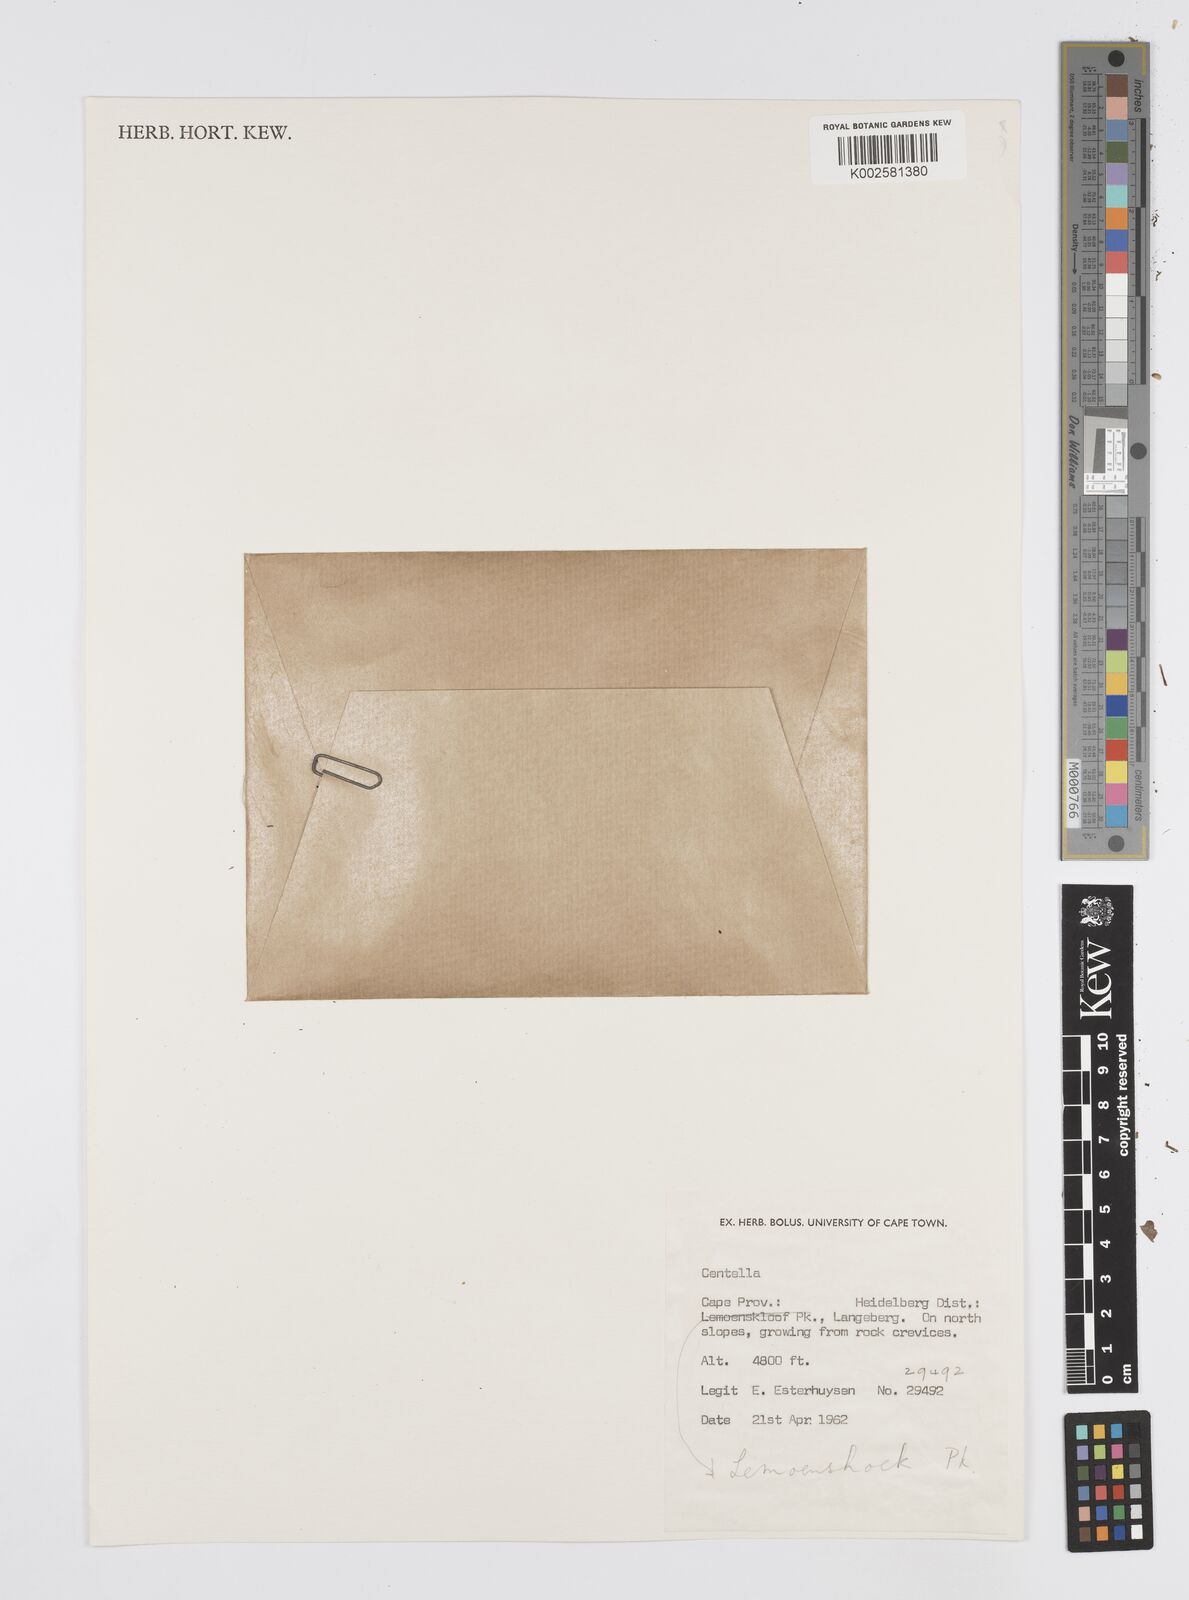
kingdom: Plantae
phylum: Tracheophyta
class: Magnoliopsida
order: Apiales
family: Apiaceae
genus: Centella
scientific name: Centella
